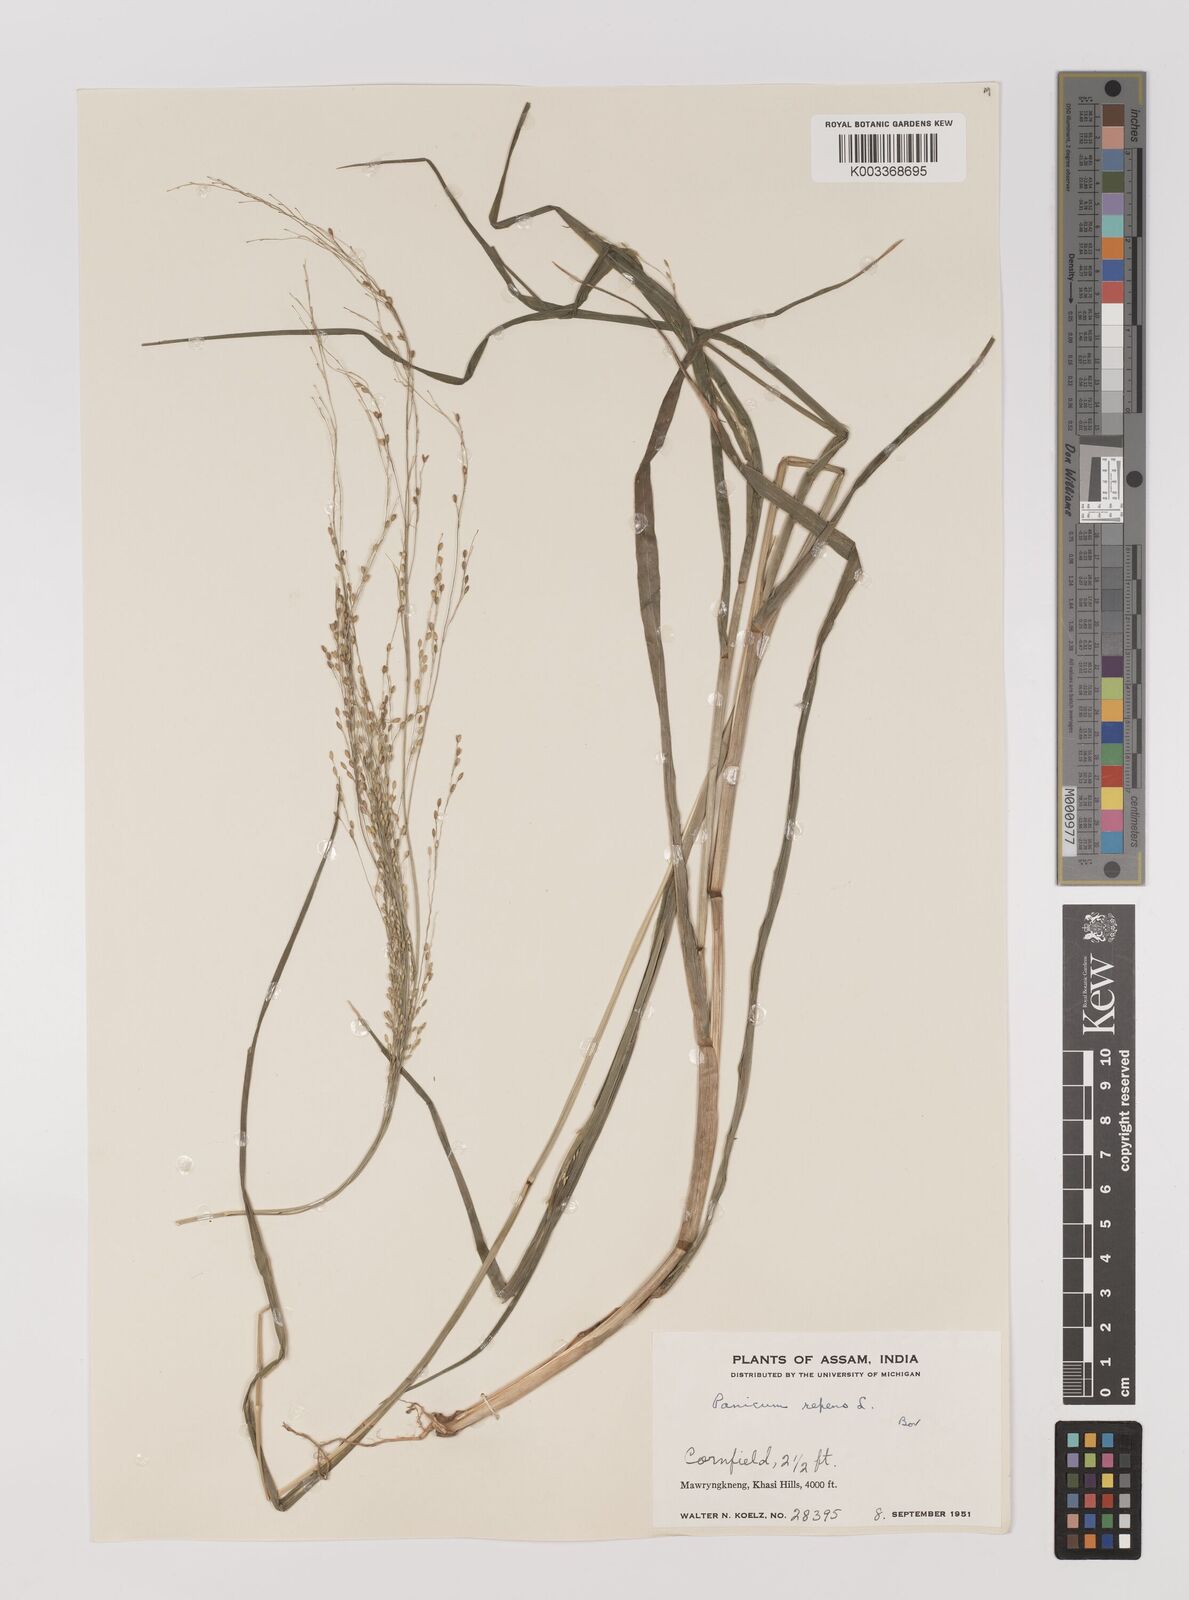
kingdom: Plantae
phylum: Tracheophyta
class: Liliopsida
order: Poales
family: Poaceae
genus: Panicum
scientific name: Panicum repens
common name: Torpedo grass
